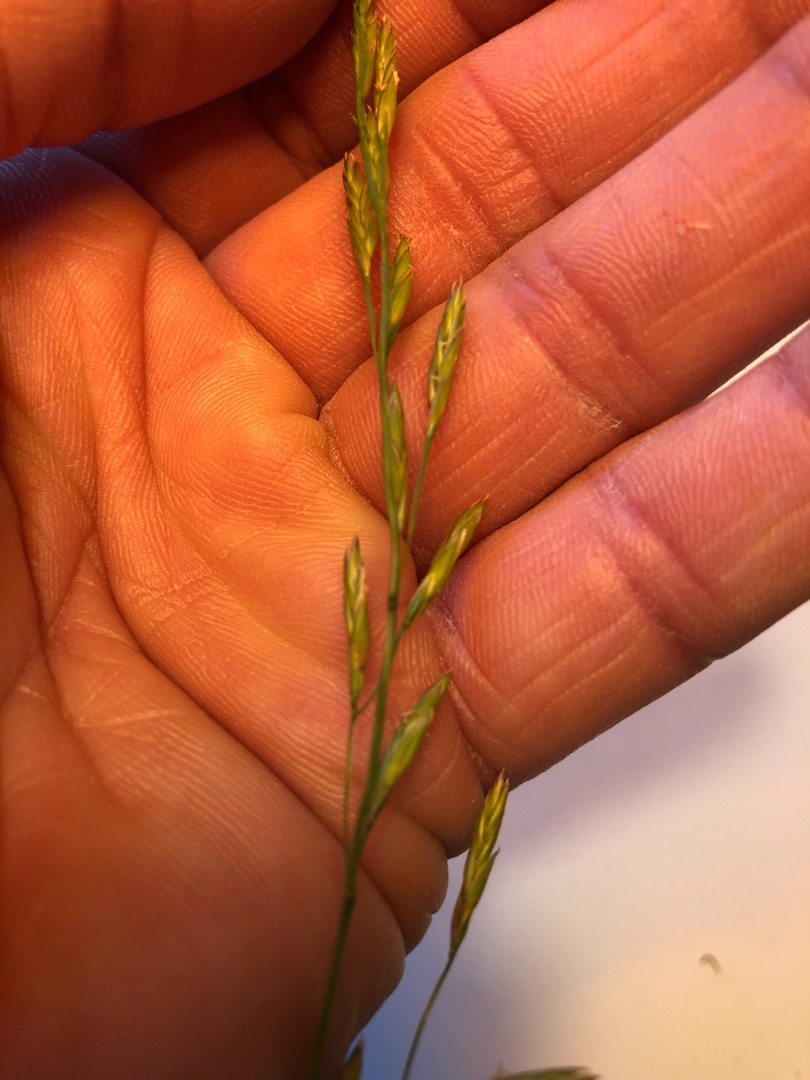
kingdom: Plantae
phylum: Tracheophyta
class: Liliopsida
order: Poales
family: Poaceae
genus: Lolium
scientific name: Lolium pratense
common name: Eng-svingel
